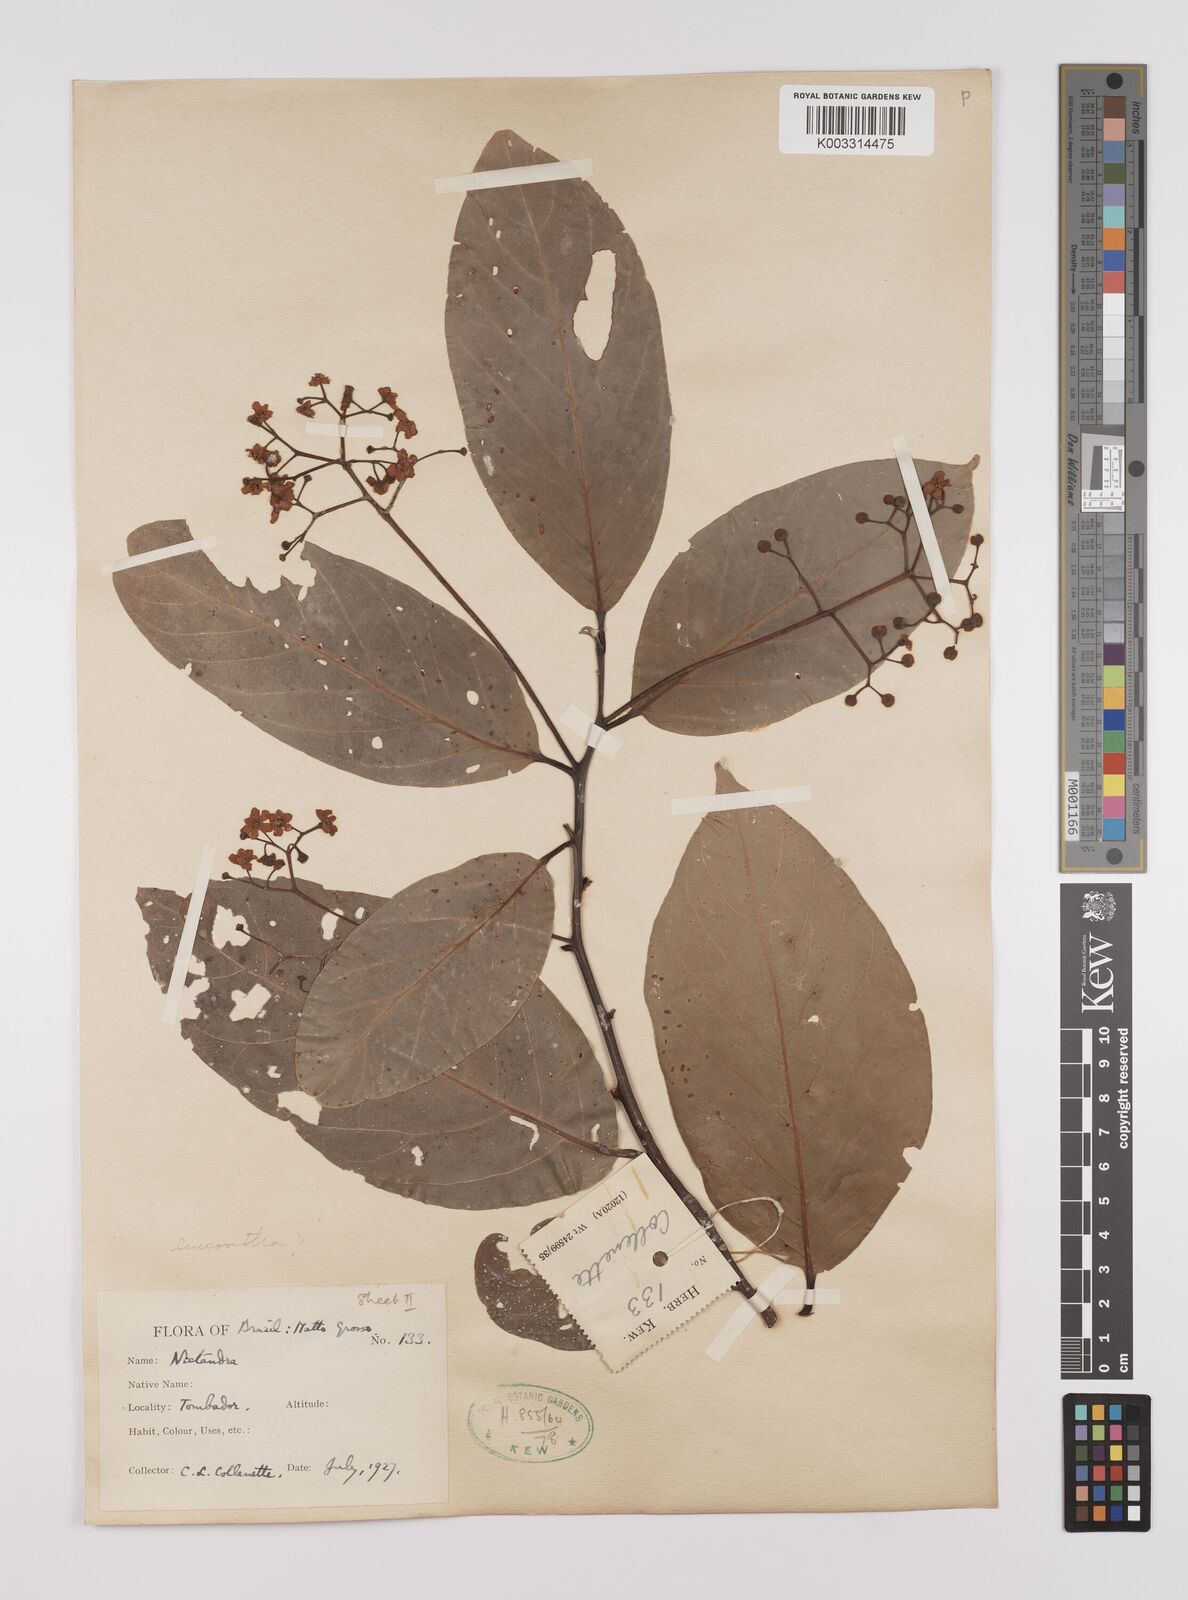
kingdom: Plantae
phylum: Tracheophyta
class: Magnoliopsida
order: Laurales
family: Lauraceae
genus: Nectandra
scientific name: Nectandra leucantha
